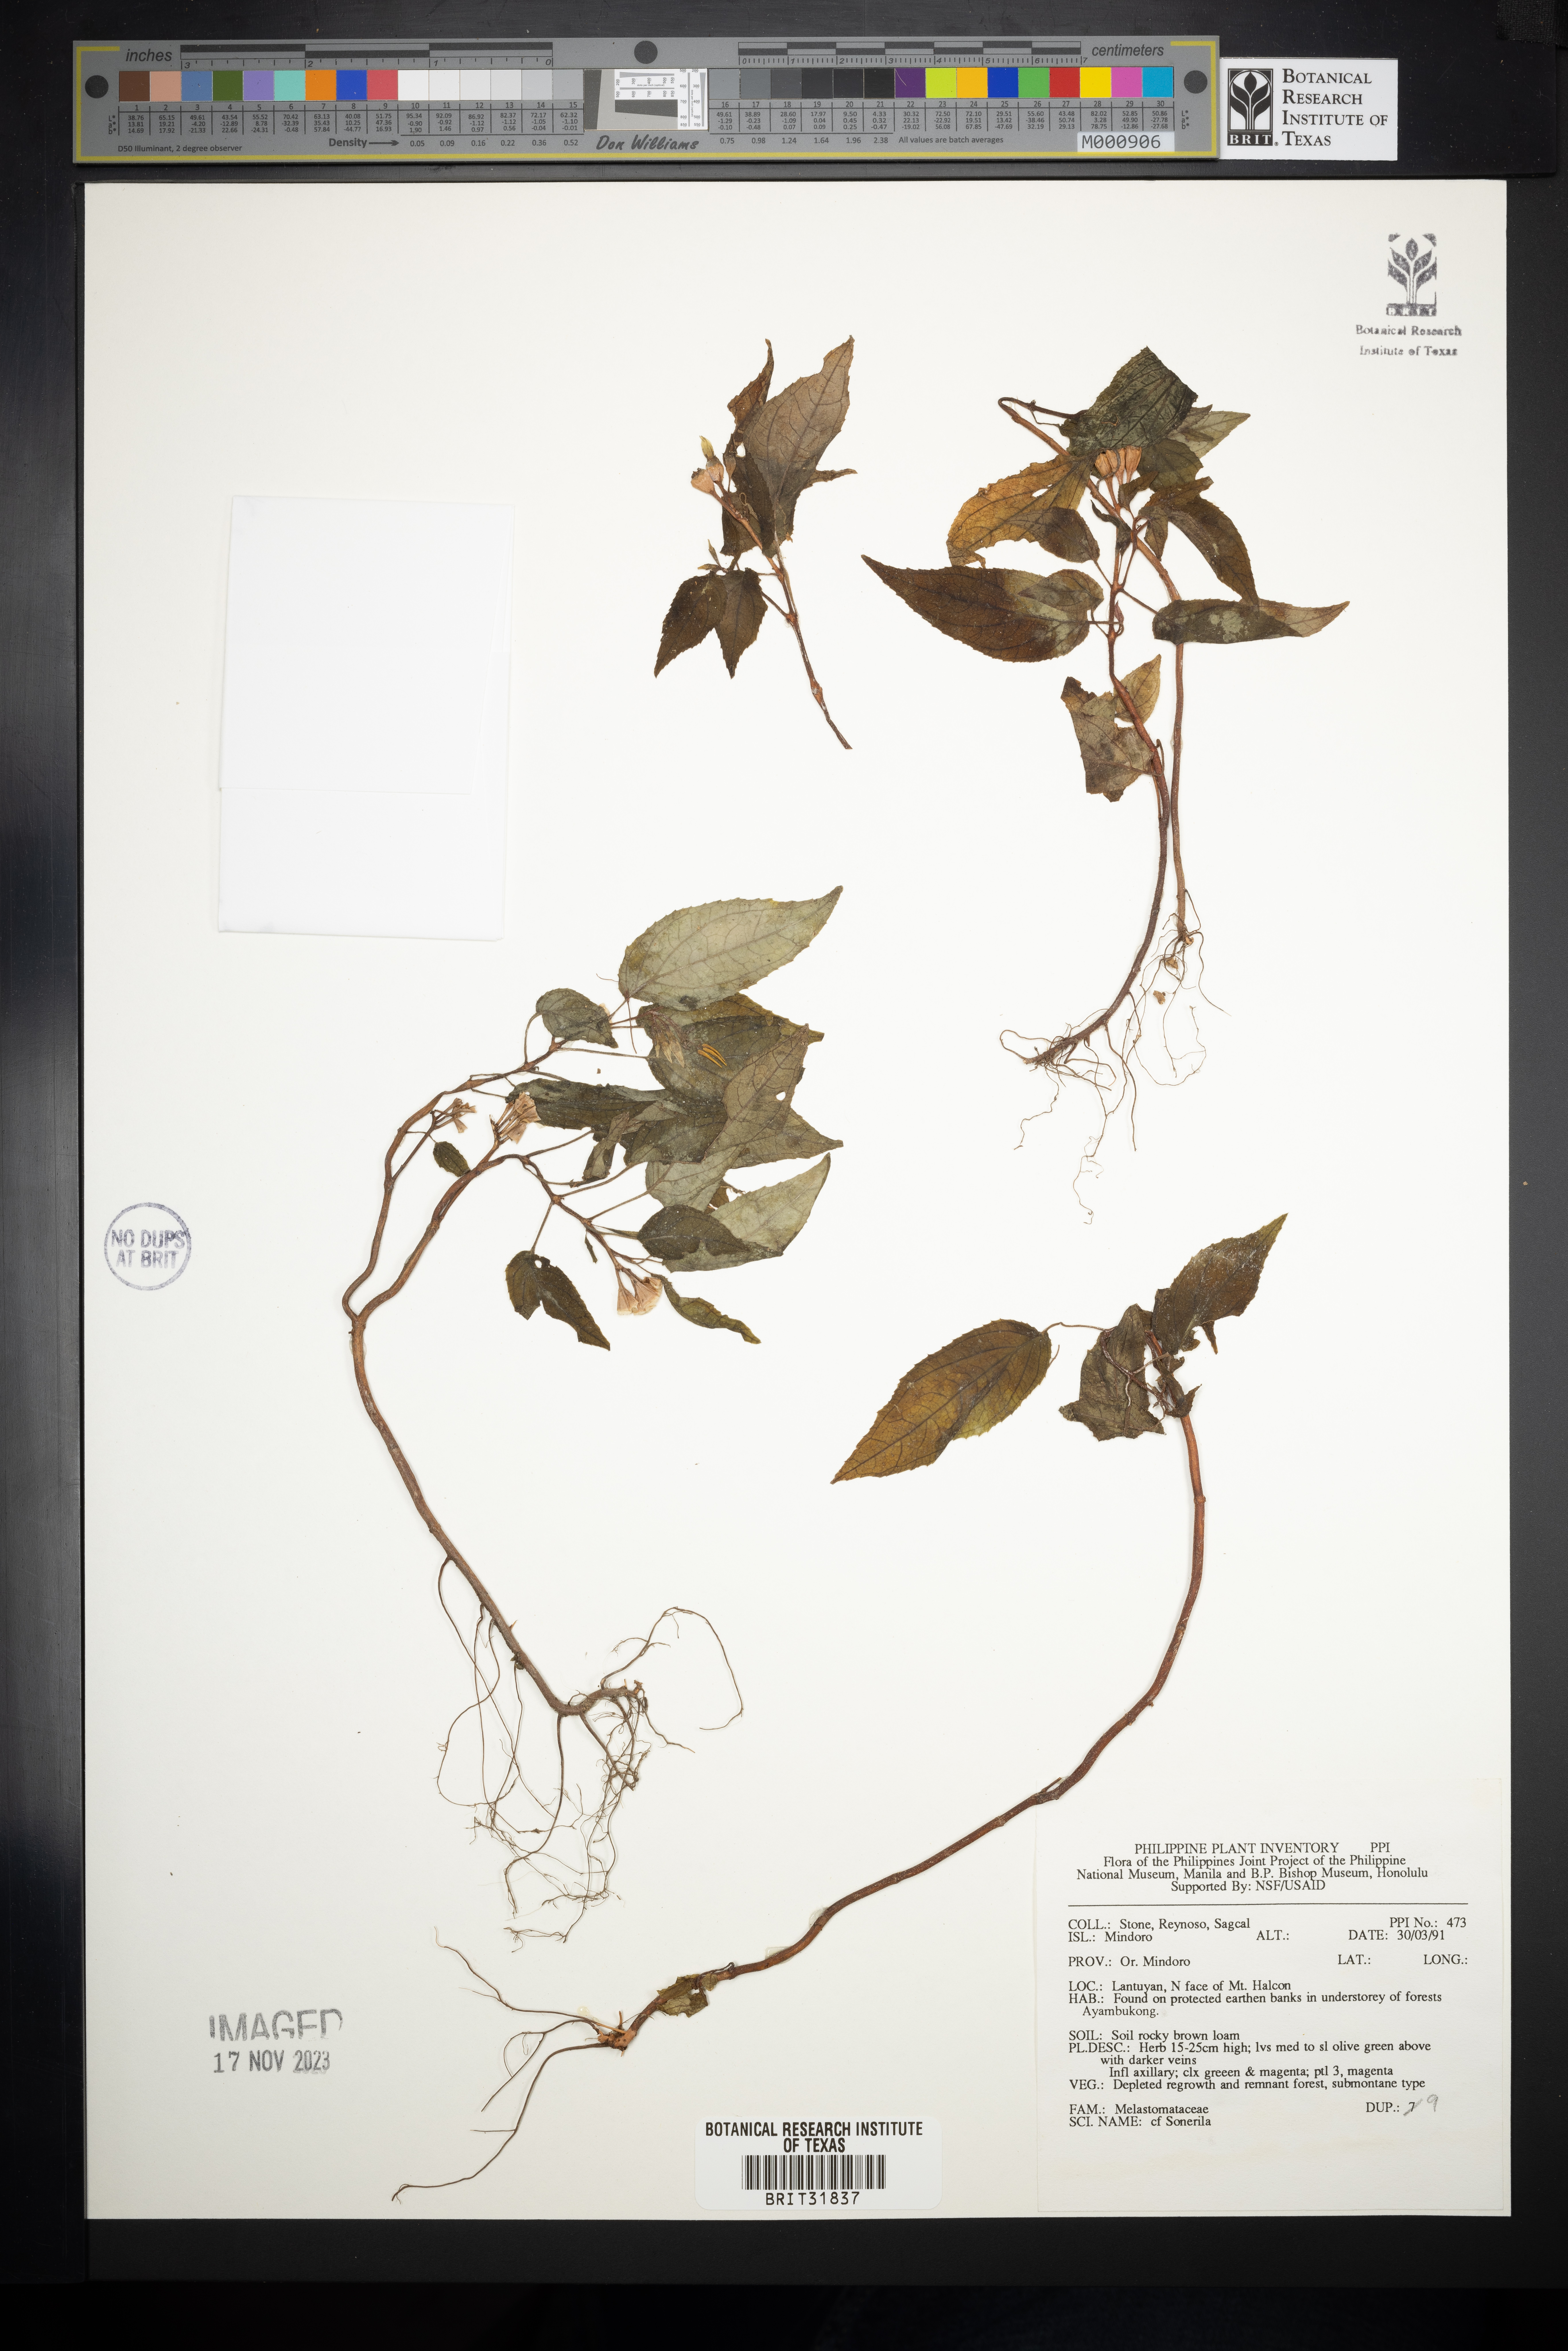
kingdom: Plantae
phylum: Tracheophyta
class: Magnoliopsida
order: Myrtales
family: Melastomataceae
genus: Sonerila
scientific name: Sonerila
